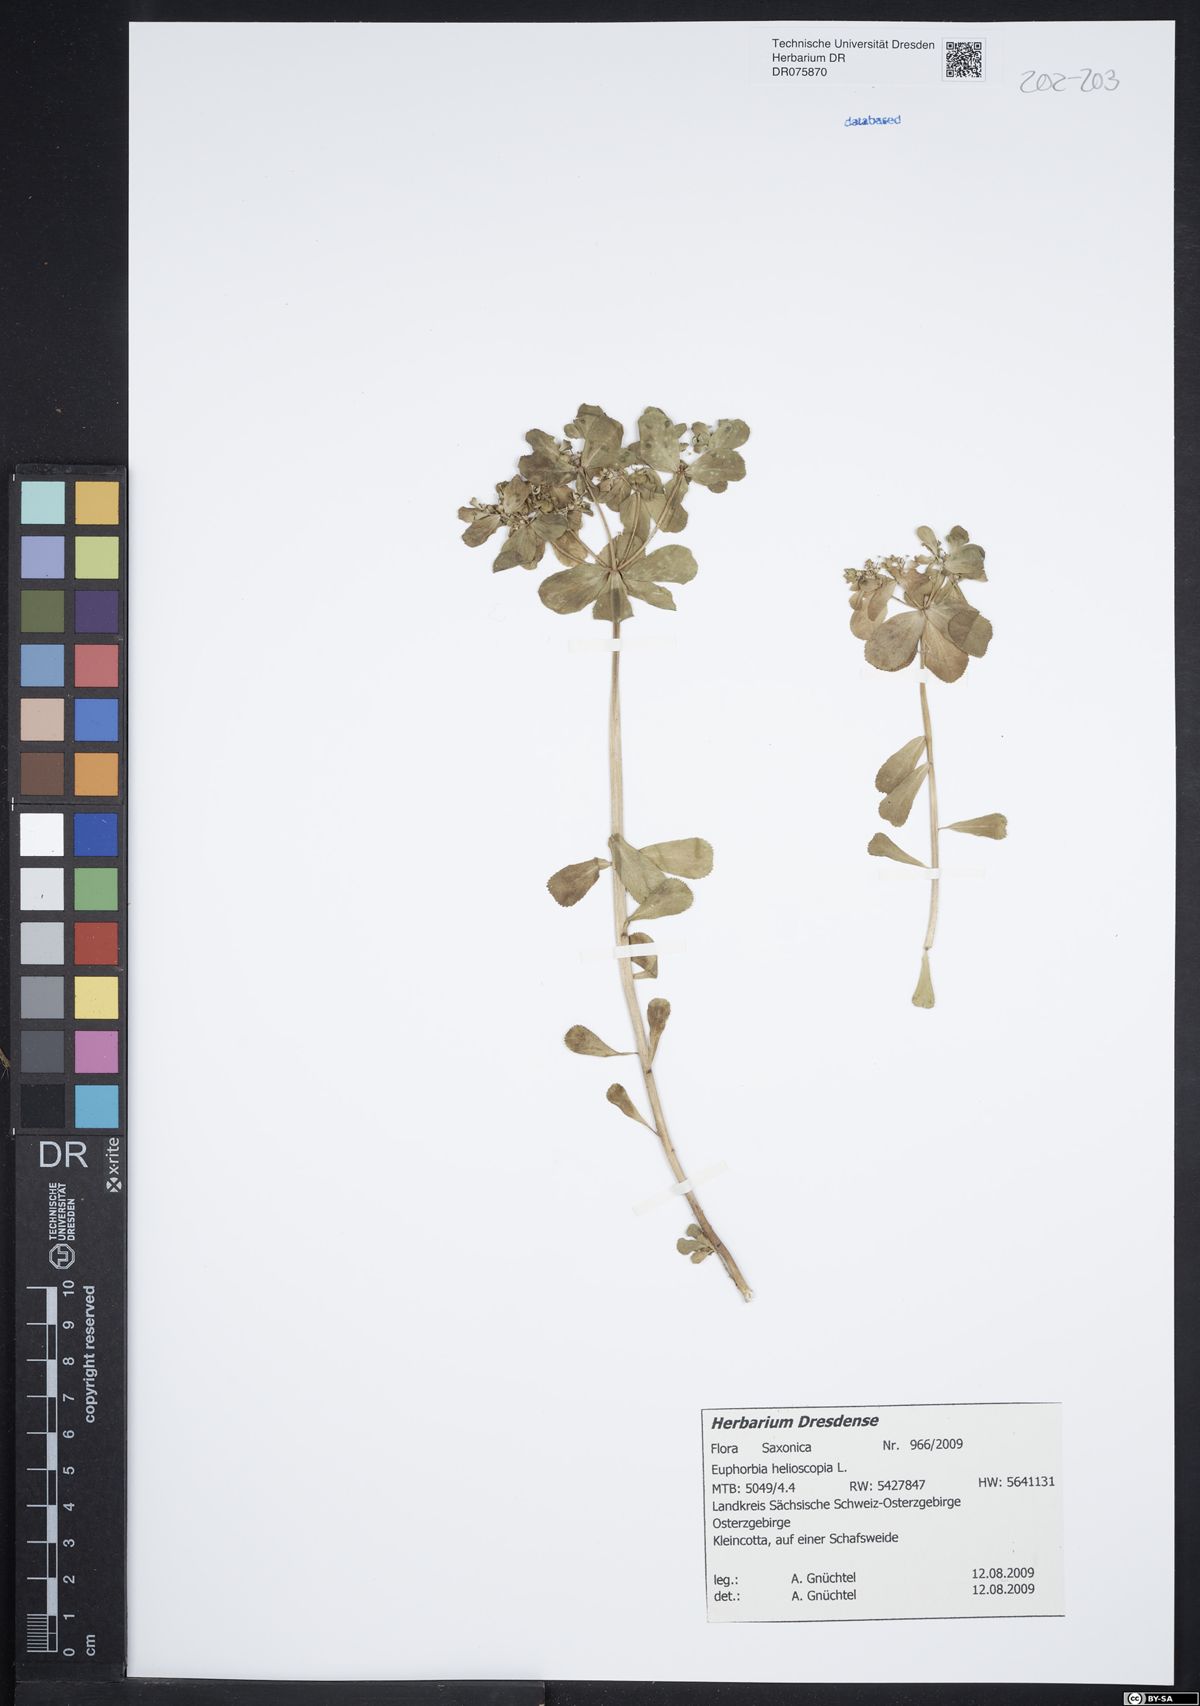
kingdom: Plantae
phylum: Tracheophyta
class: Magnoliopsida
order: Malpighiales
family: Euphorbiaceae
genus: Euphorbia
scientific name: Euphorbia helioscopia
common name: Sun spurge
